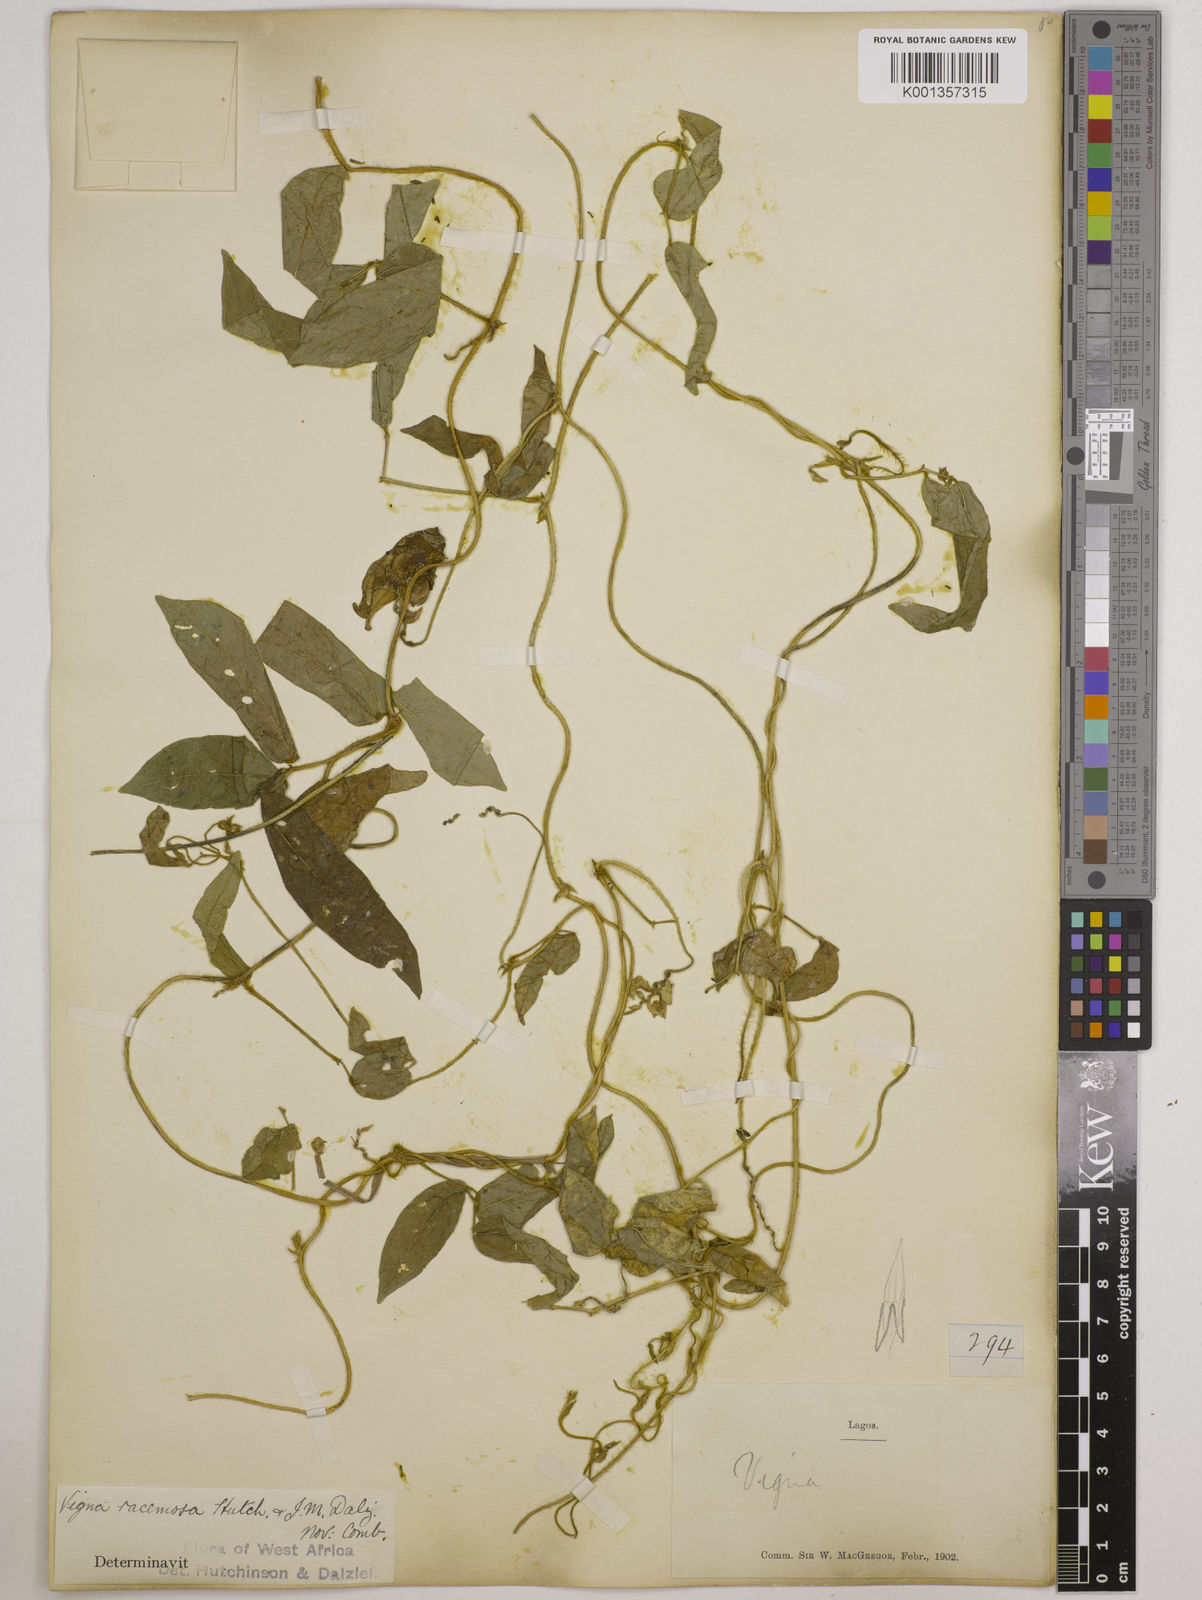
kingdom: Plantae
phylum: Tracheophyta
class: Magnoliopsida
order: Fabales
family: Fabaceae
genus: Vigna
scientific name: Vigna racemosa
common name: Beans not eaten
